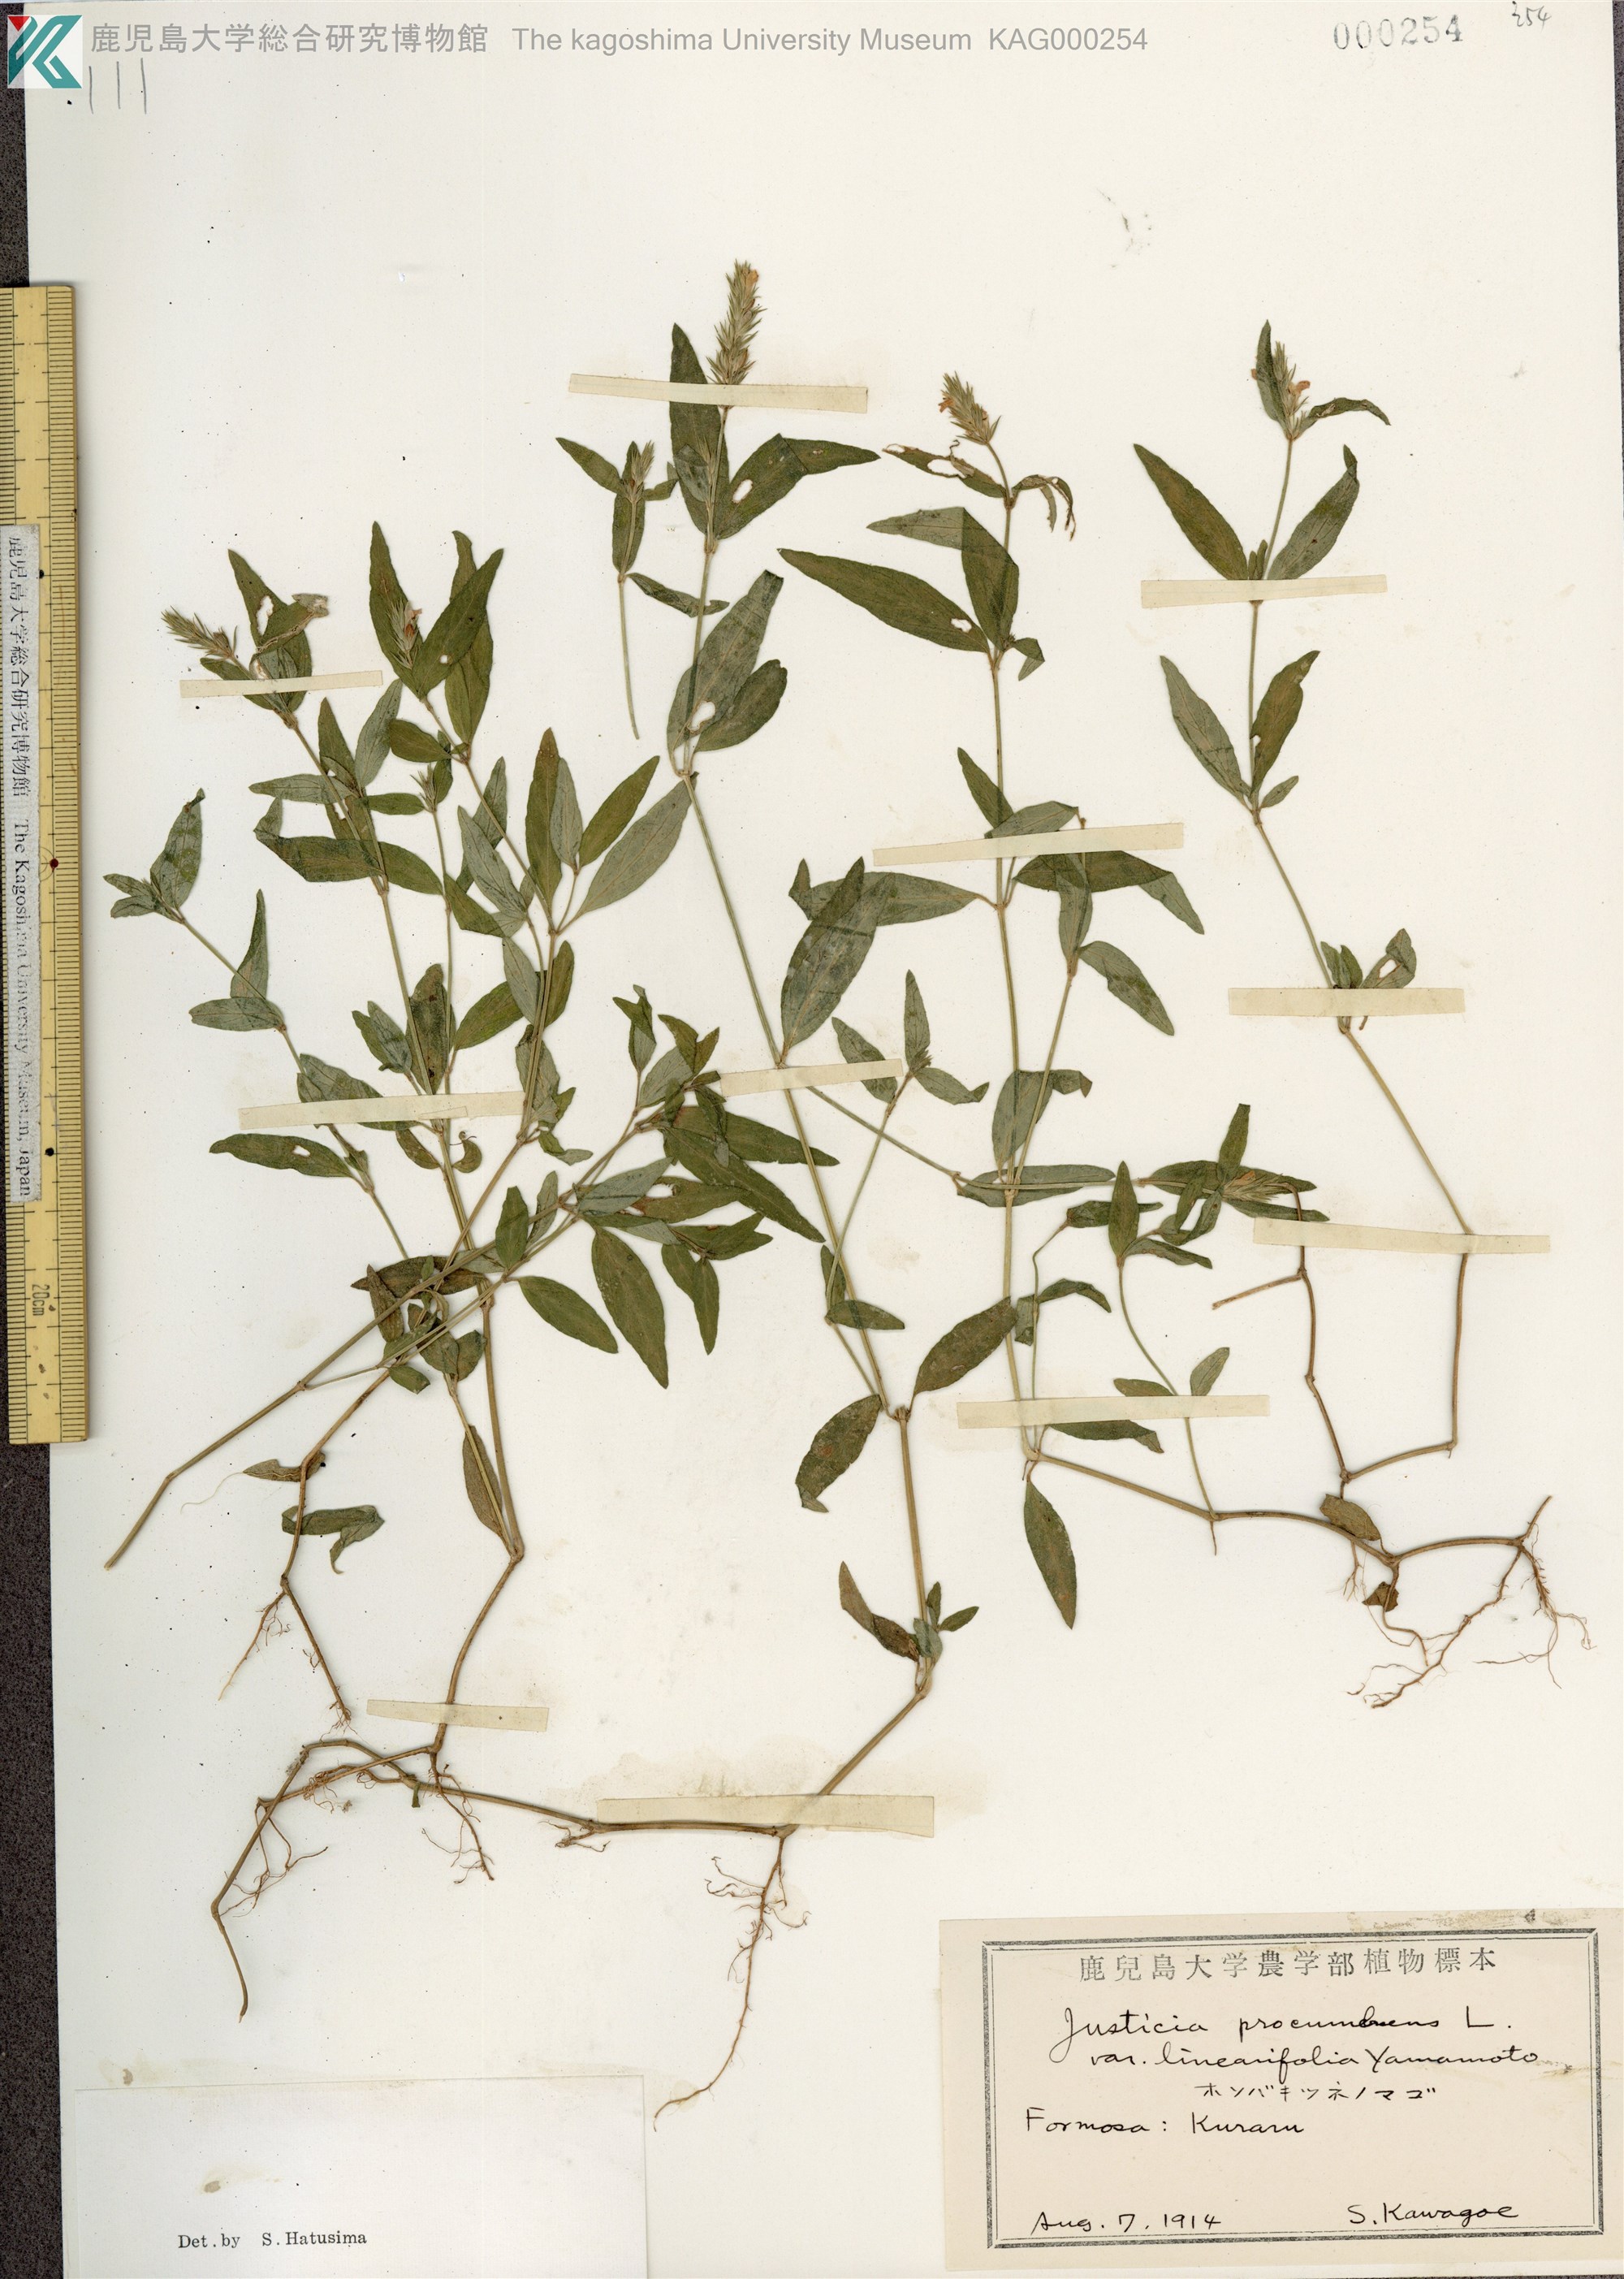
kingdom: Plantae
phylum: Tracheophyta
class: Magnoliopsida
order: Lamiales
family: Acanthaceae
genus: Rostellularia
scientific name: Rostellularia procumbens
